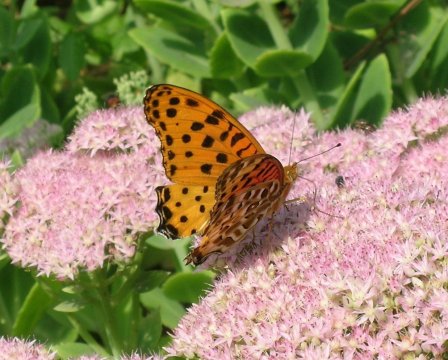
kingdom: Animalia
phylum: Arthropoda
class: Insecta
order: Lepidoptera
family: Nymphalidae
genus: Argynnis
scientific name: Argynnis hyperbius
